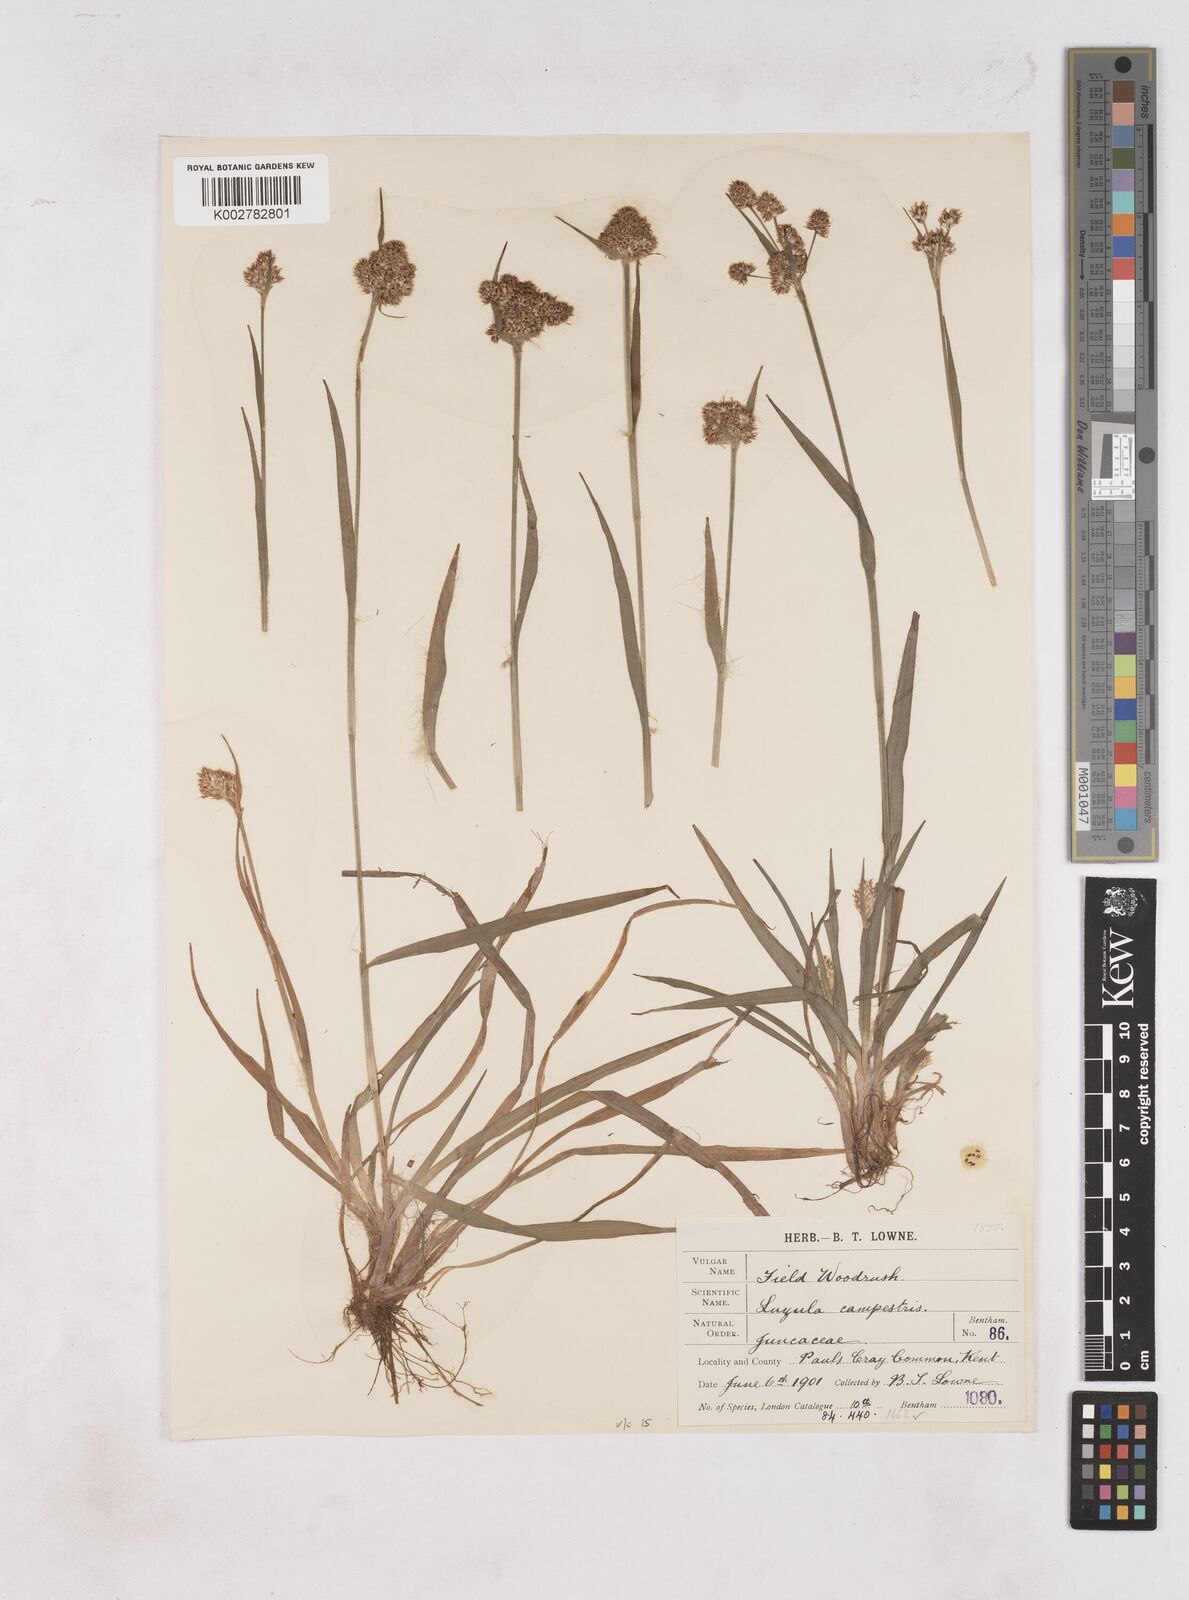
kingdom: Plantae
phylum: Tracheophyta
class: Liliopsida
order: Poales
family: Juncaceae
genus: Luzula
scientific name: Luzula campestris
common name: Field wood-rush
